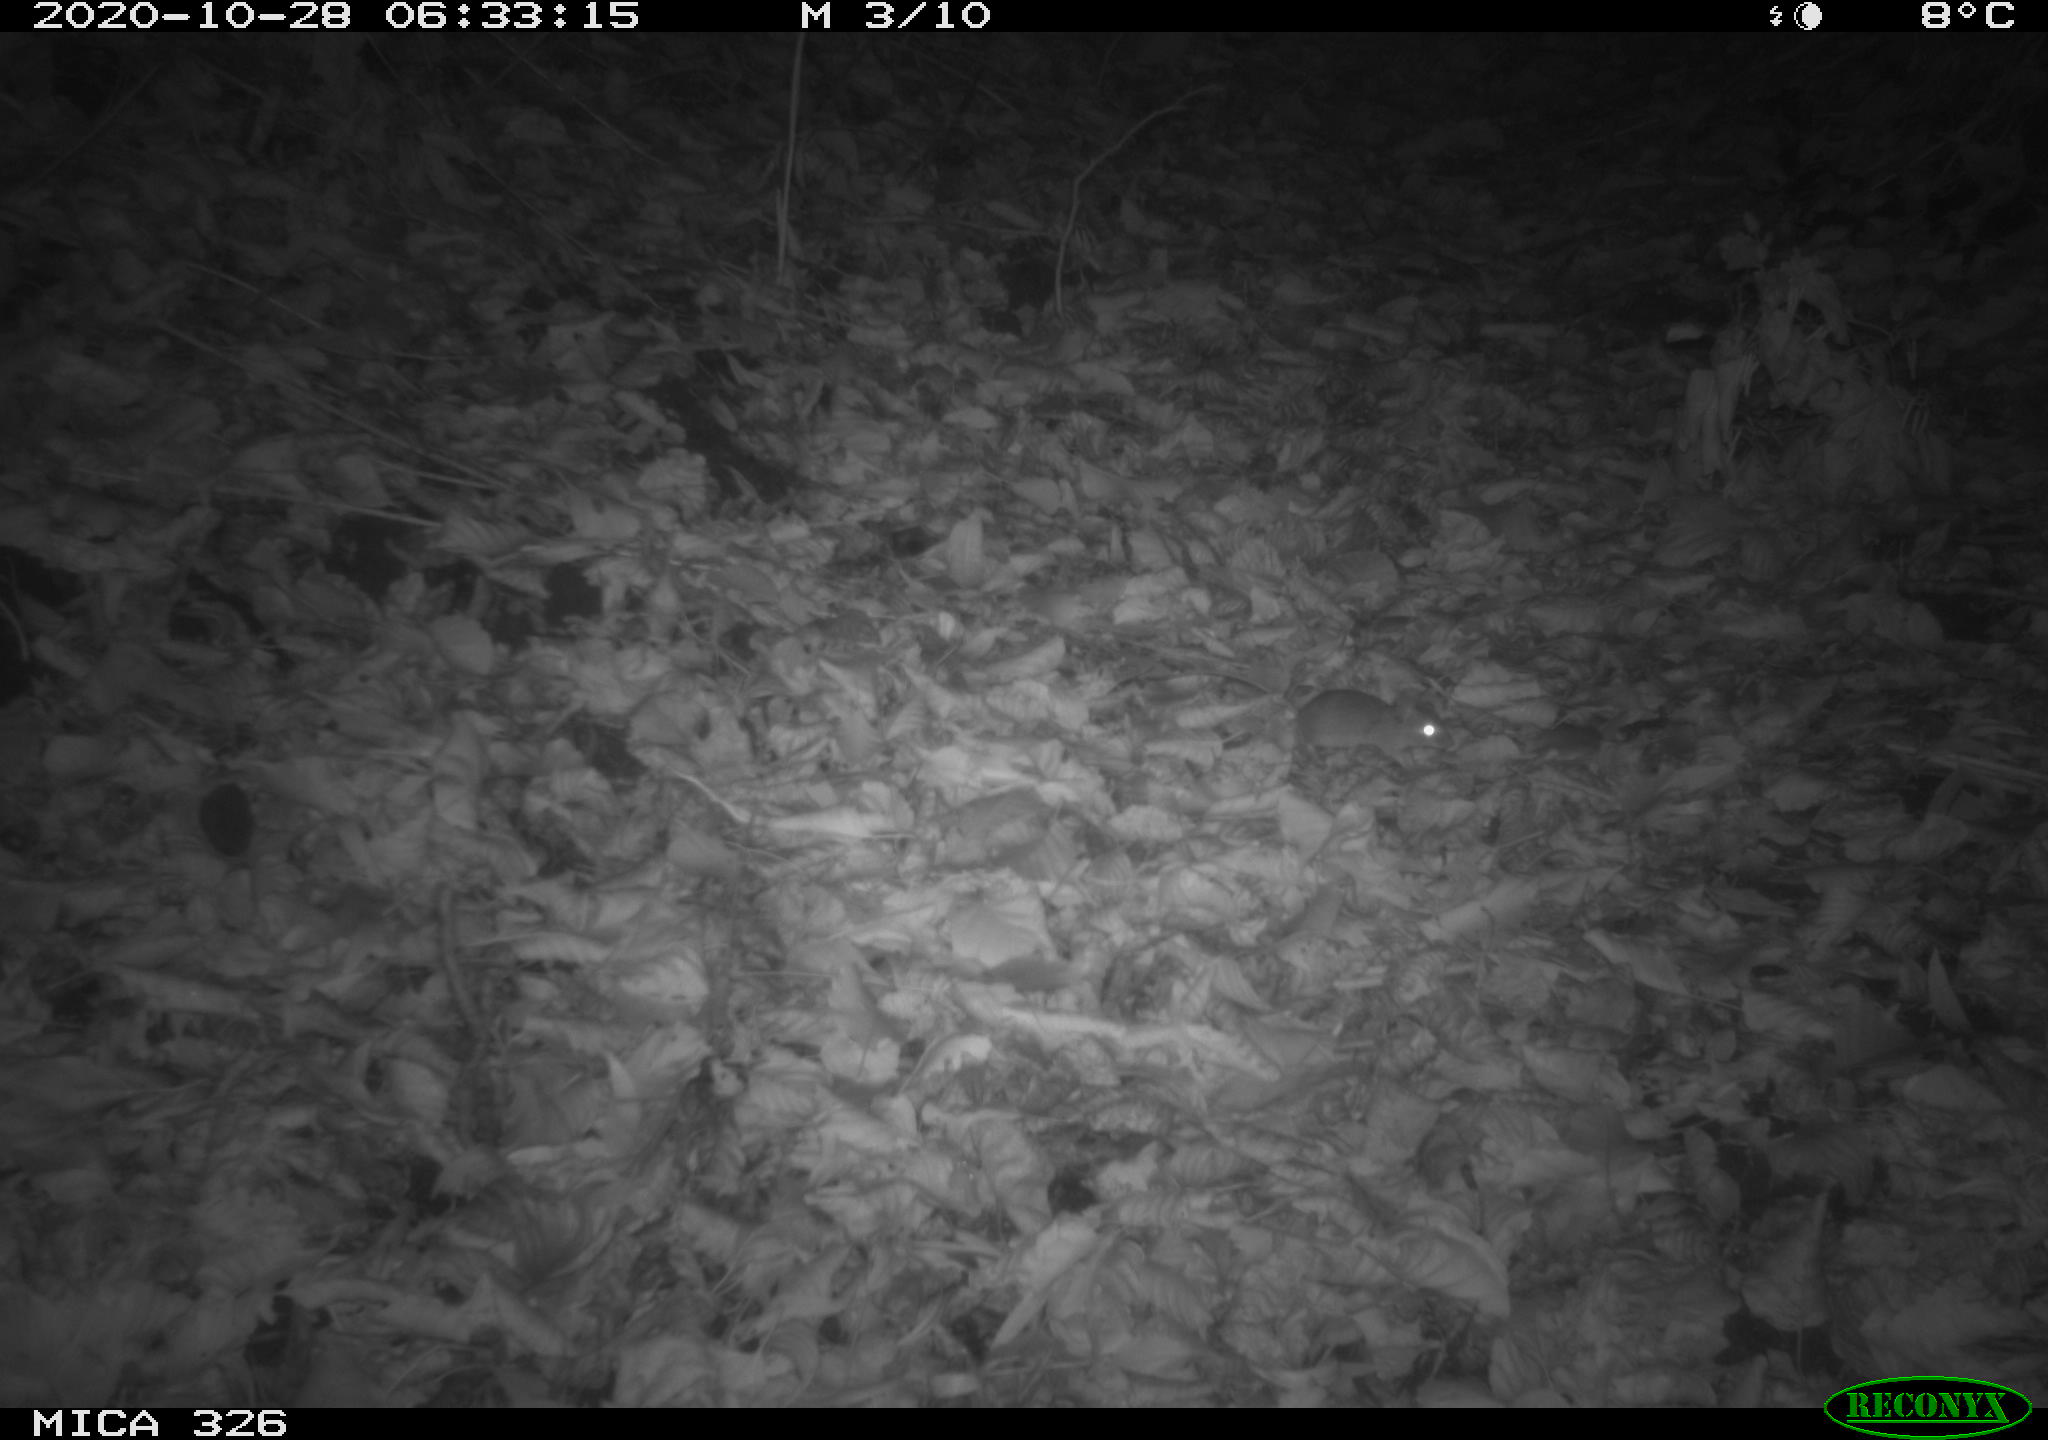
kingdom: Animalia
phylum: Chordata
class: Mammalia
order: Rodentia
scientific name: Rodentia
